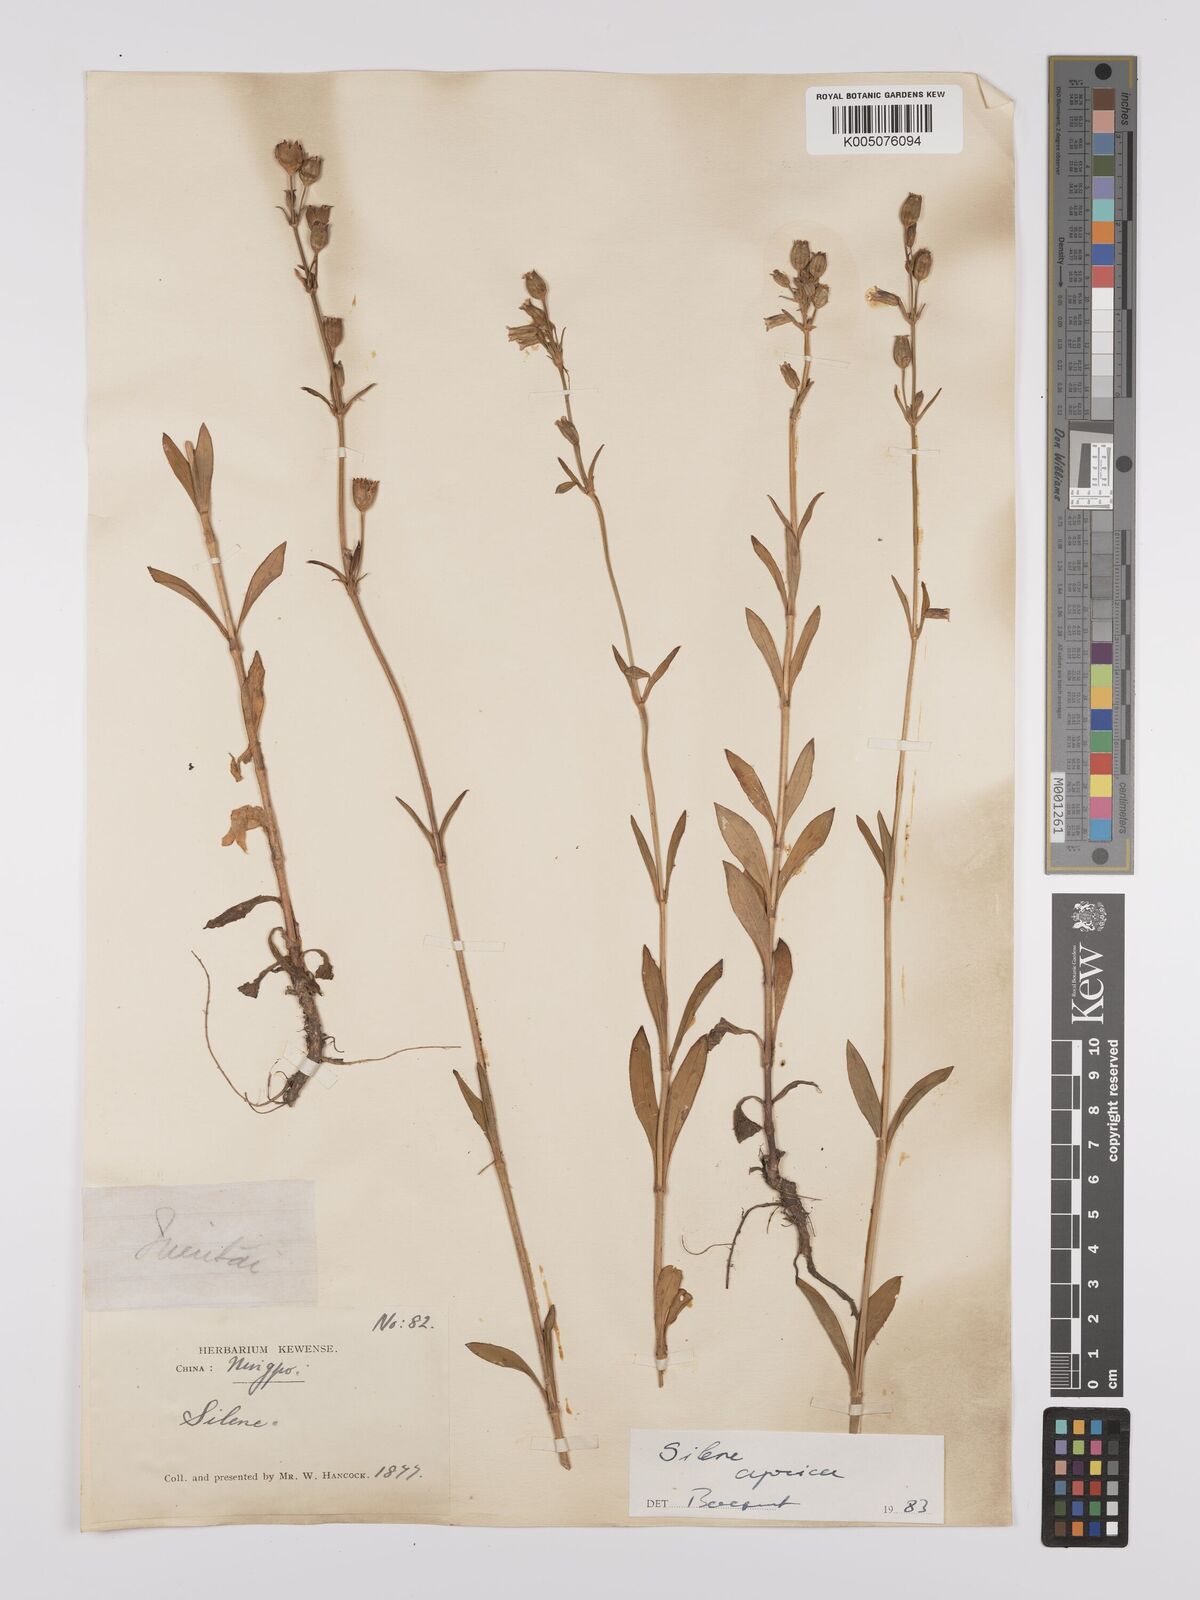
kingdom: Plantae
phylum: Tracheophyta
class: Magnoliopsida
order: Caryophyllales
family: Caryophyllaceae
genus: Silene
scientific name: Silene aprica
